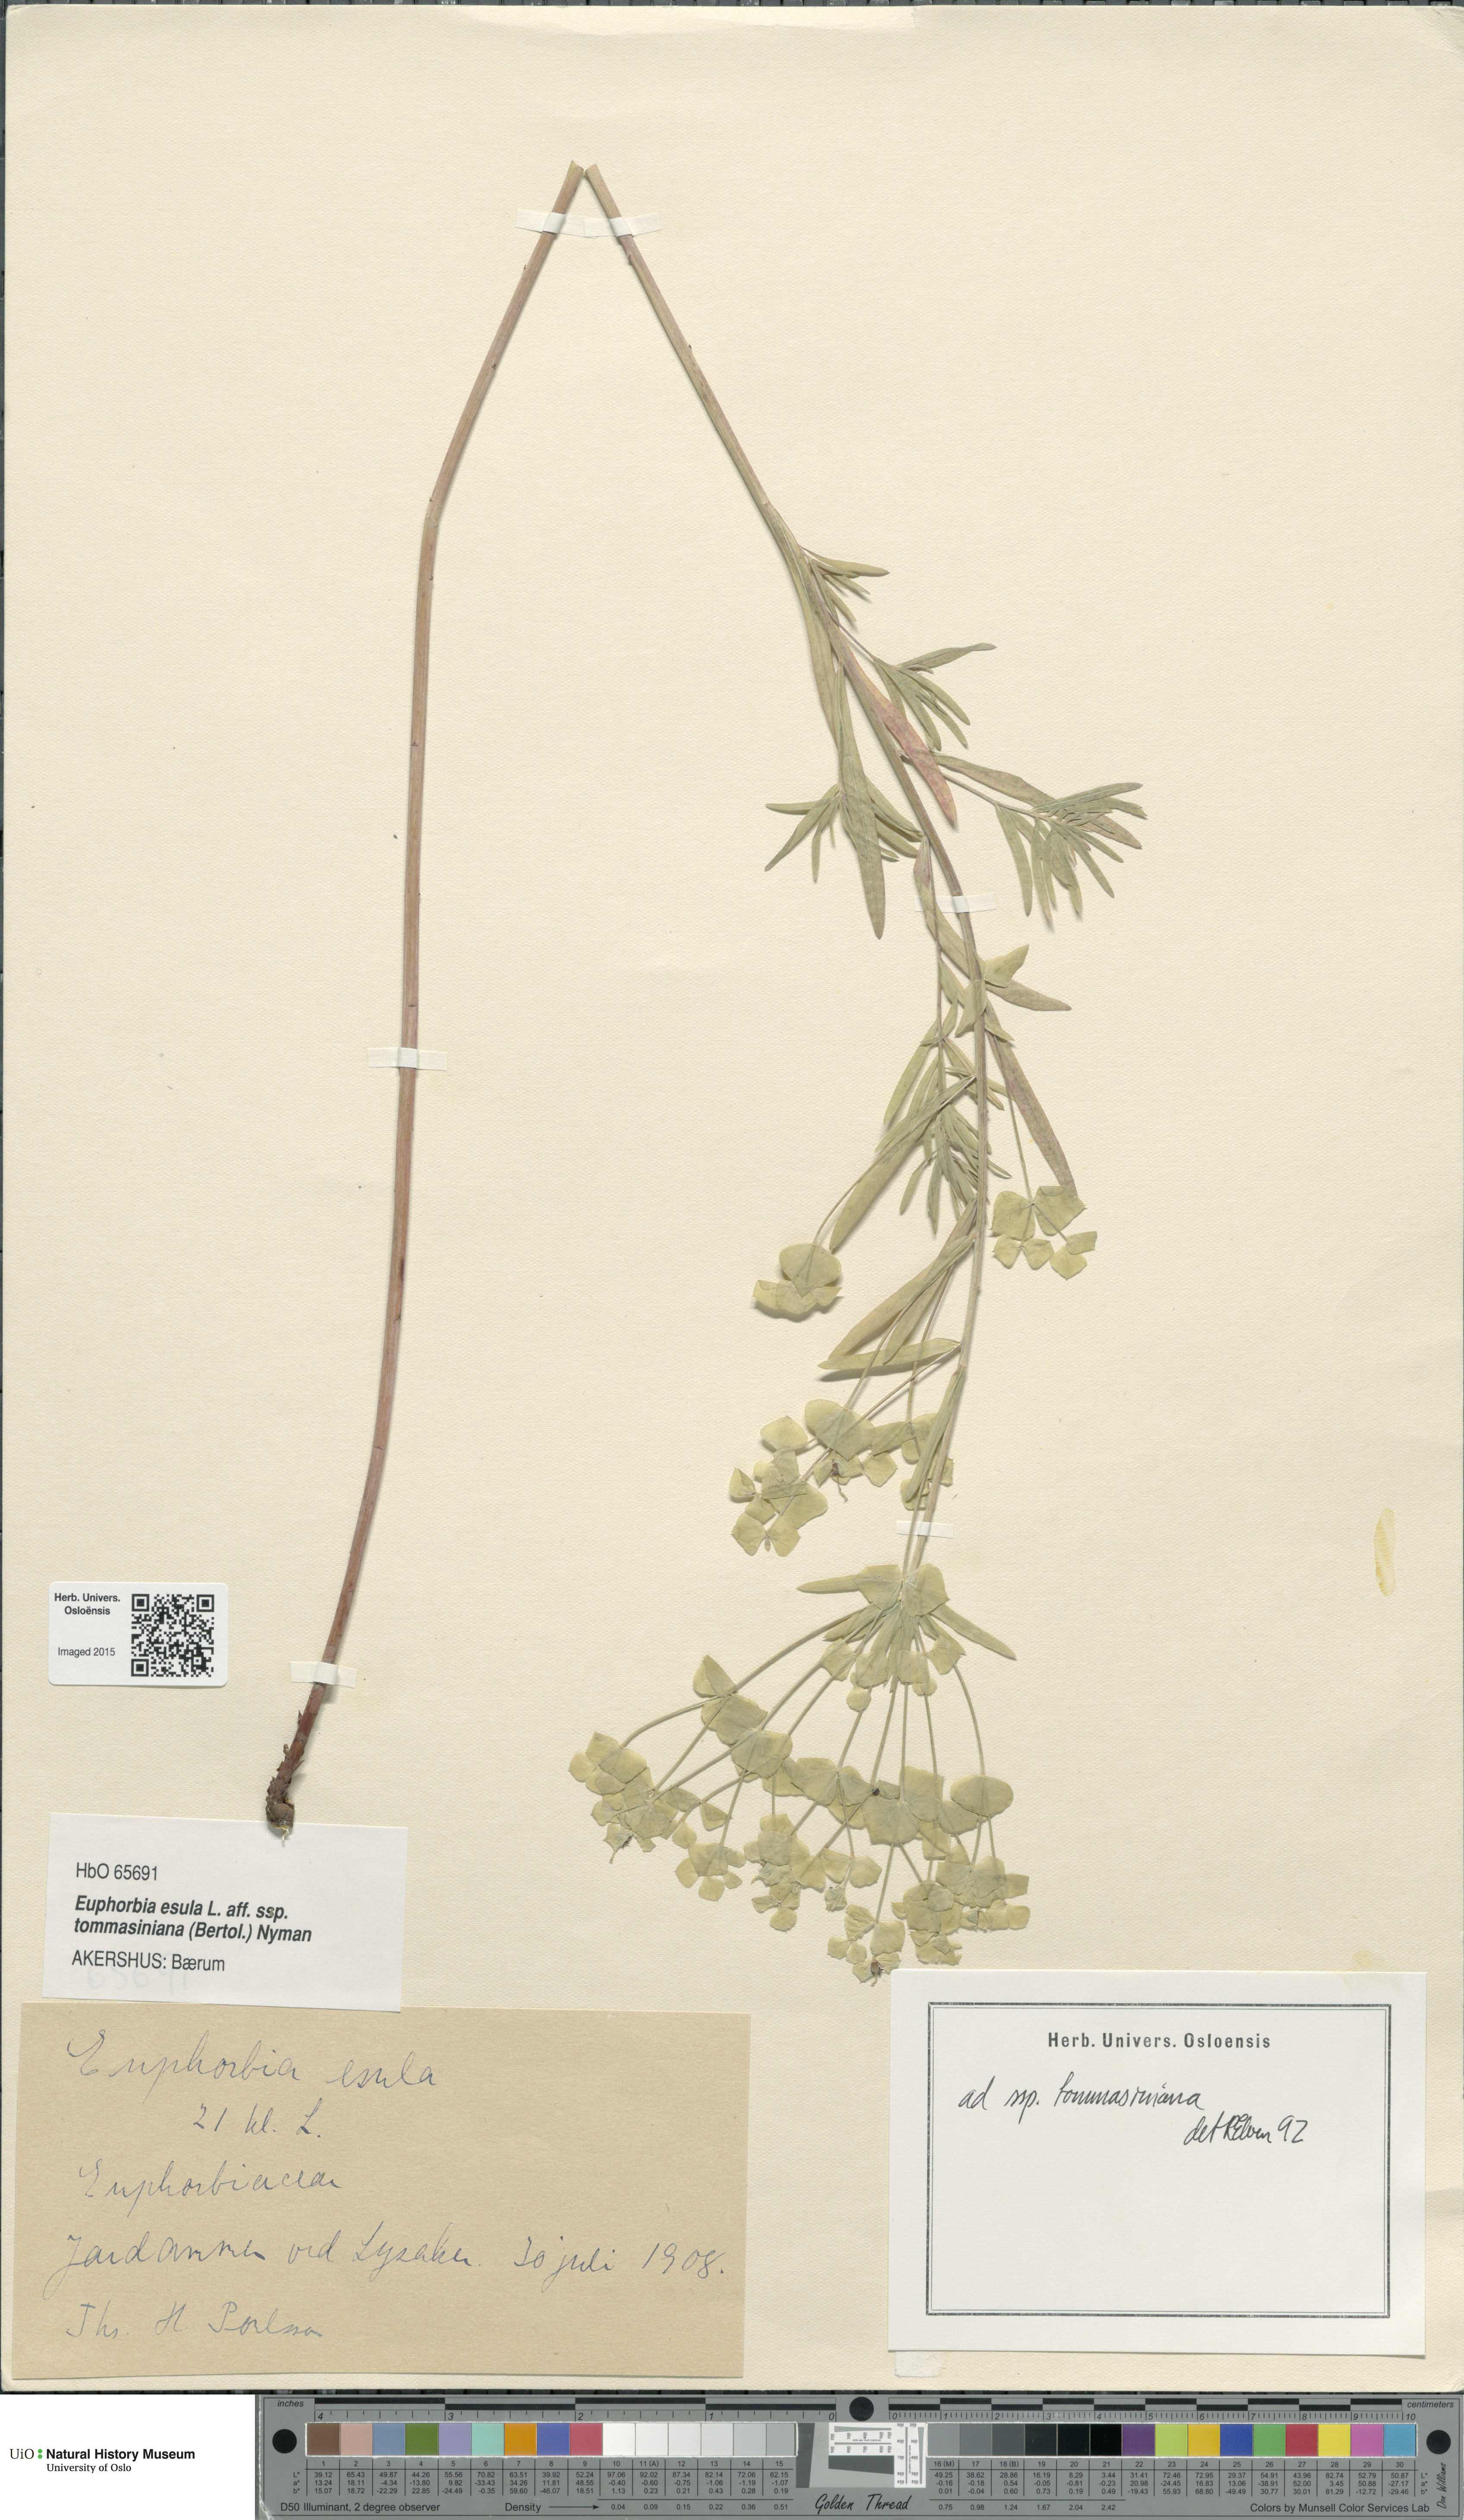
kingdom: Plantae
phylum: Tracheophyta
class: Magnoliopsida
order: Malpighiales
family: Euphorbiaceae
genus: Euphorbia
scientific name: Euphorbia tommasiniana
